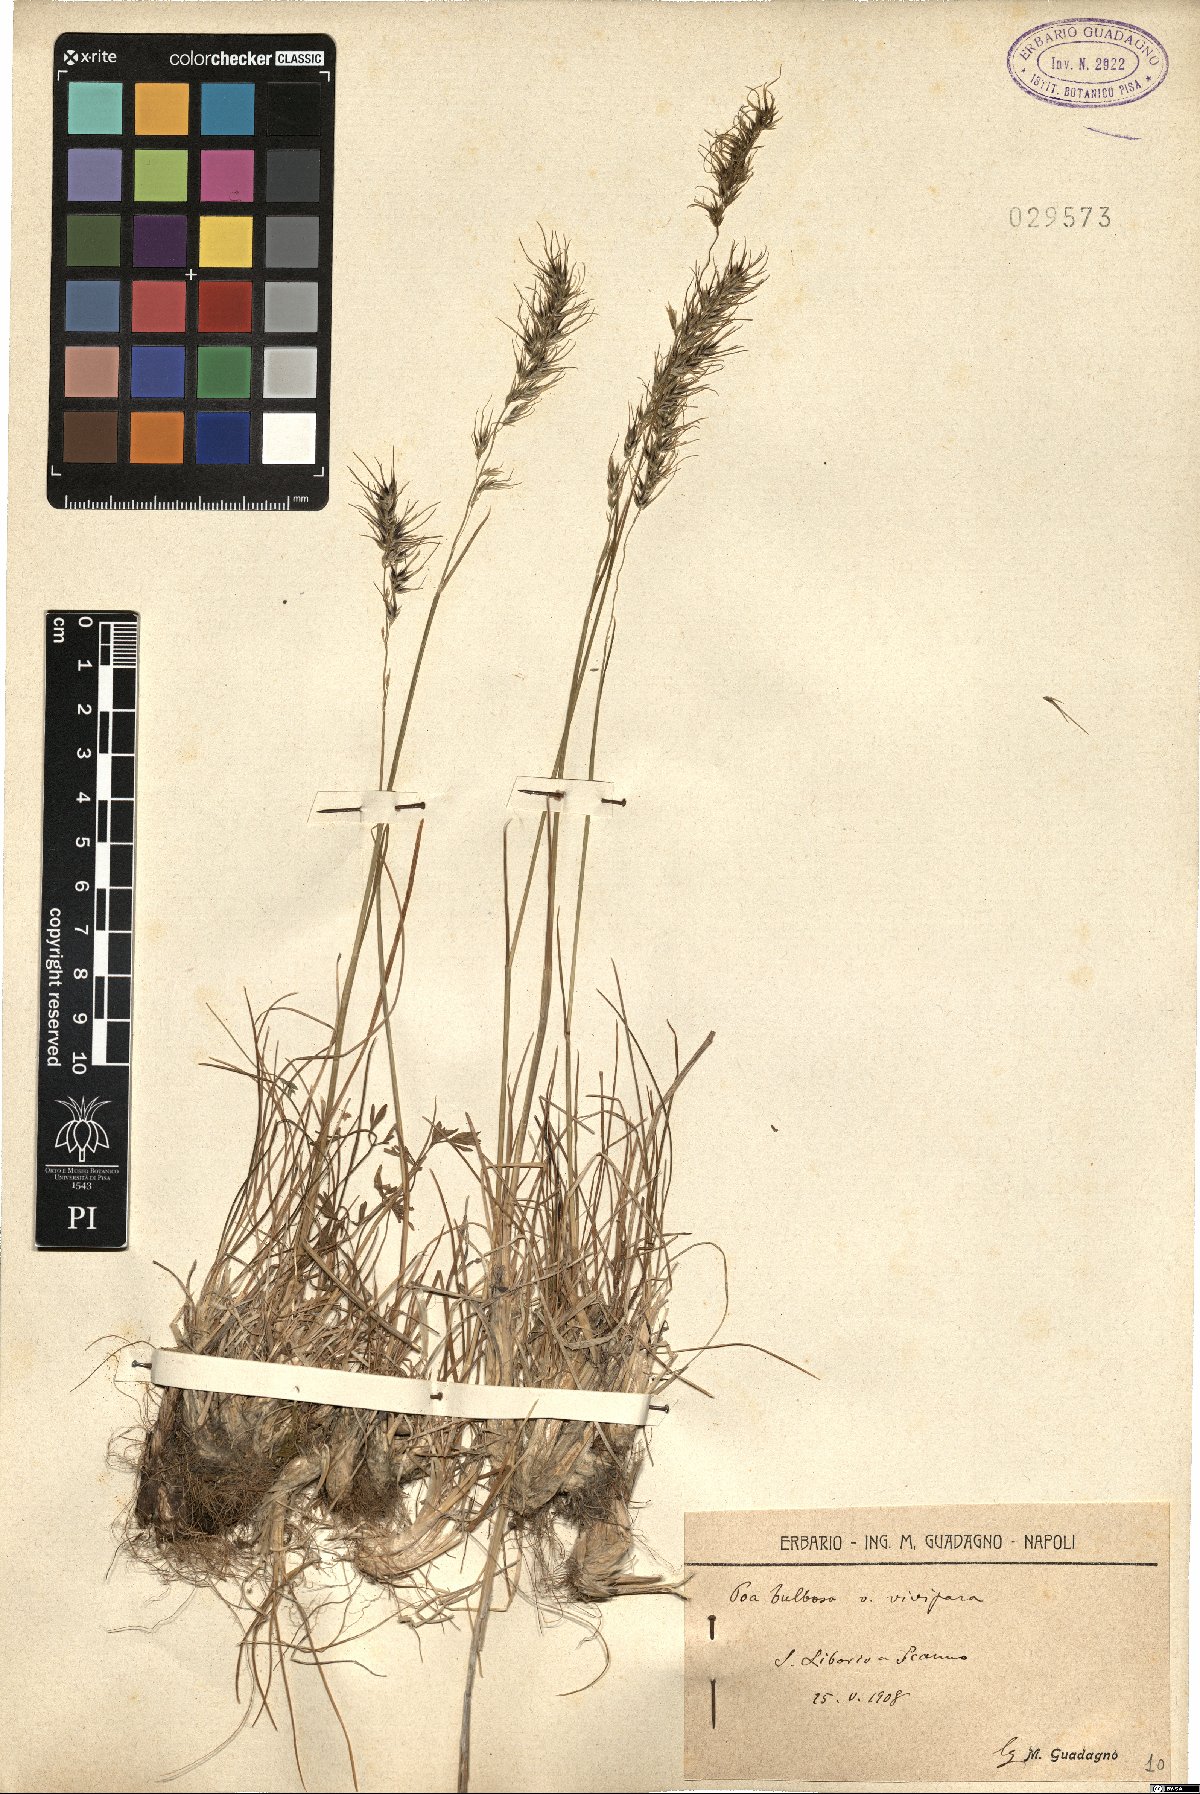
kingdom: Plantae
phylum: Tracheophyta
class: Liliopsida
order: Poales
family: Poaceae
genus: Poa
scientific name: Poa bulbosa
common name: Bulbous bluegrass
